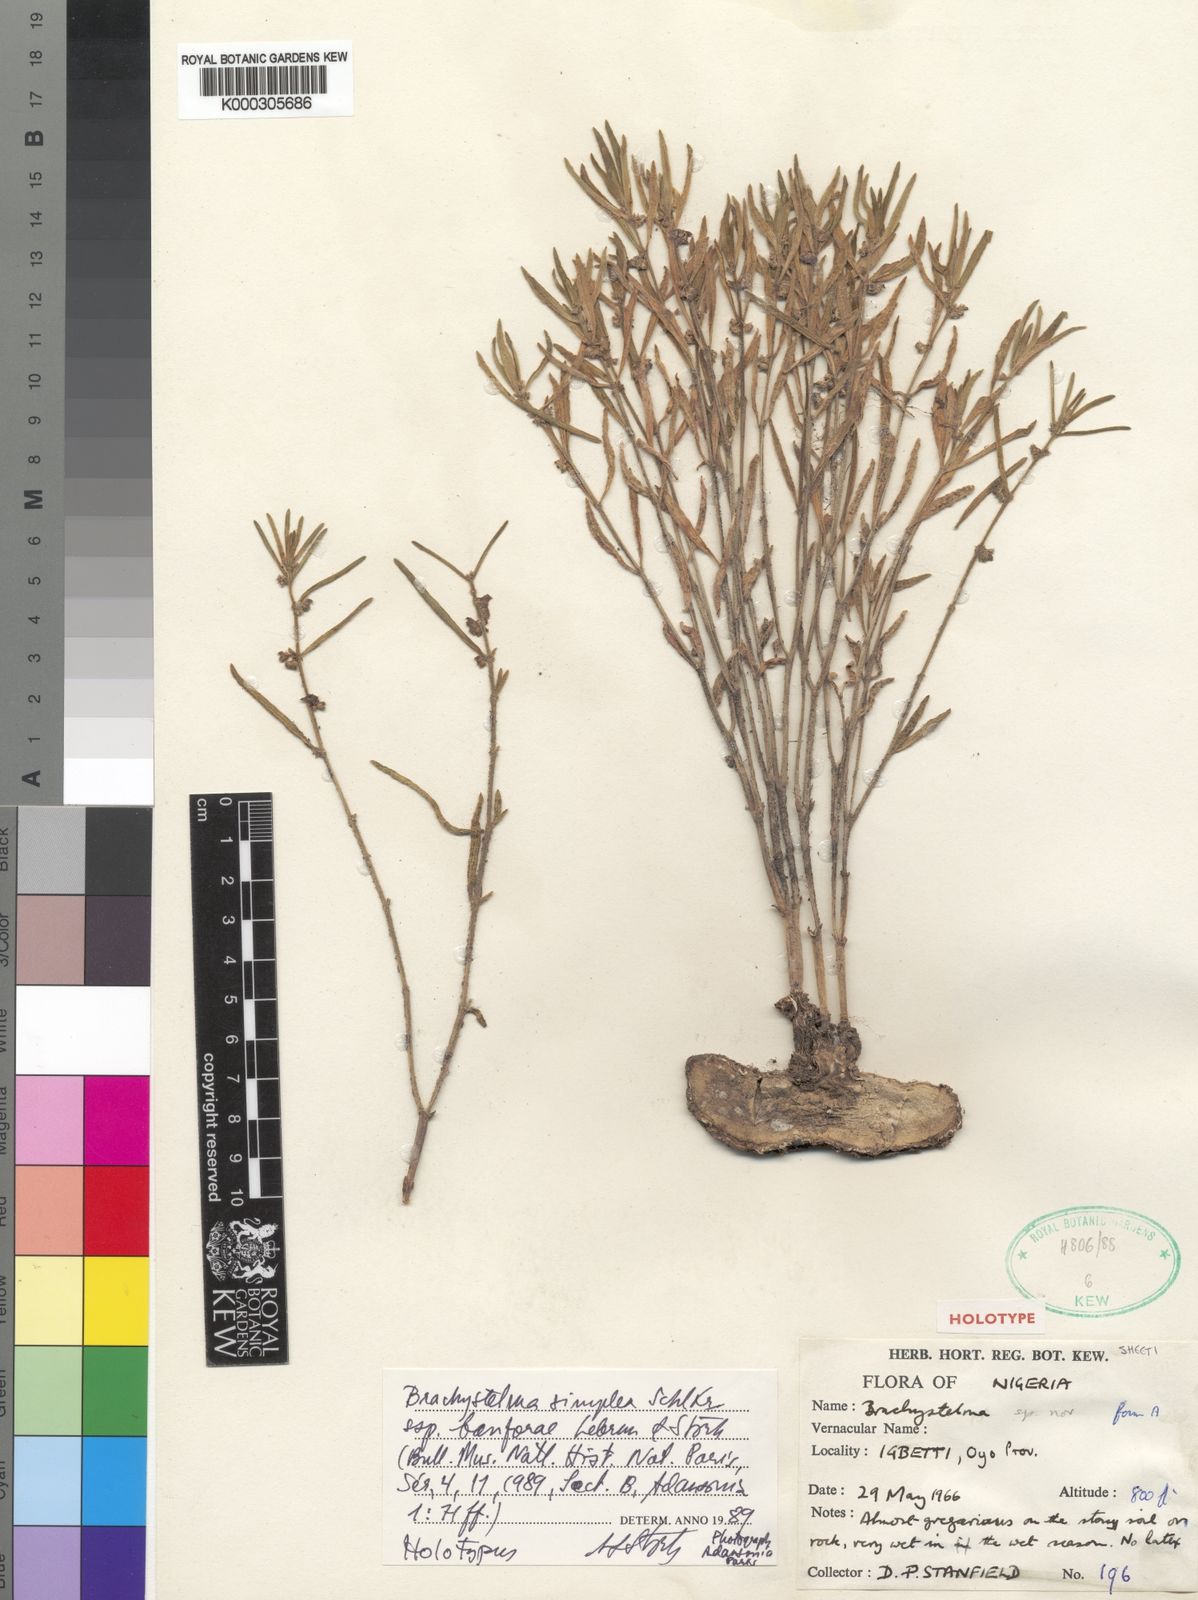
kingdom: Plantae
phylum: Tracheophyta
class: Magnoliopsida
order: Gentianales
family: Apocynaceae
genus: Ceropegia
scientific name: Ceropegia banforae
